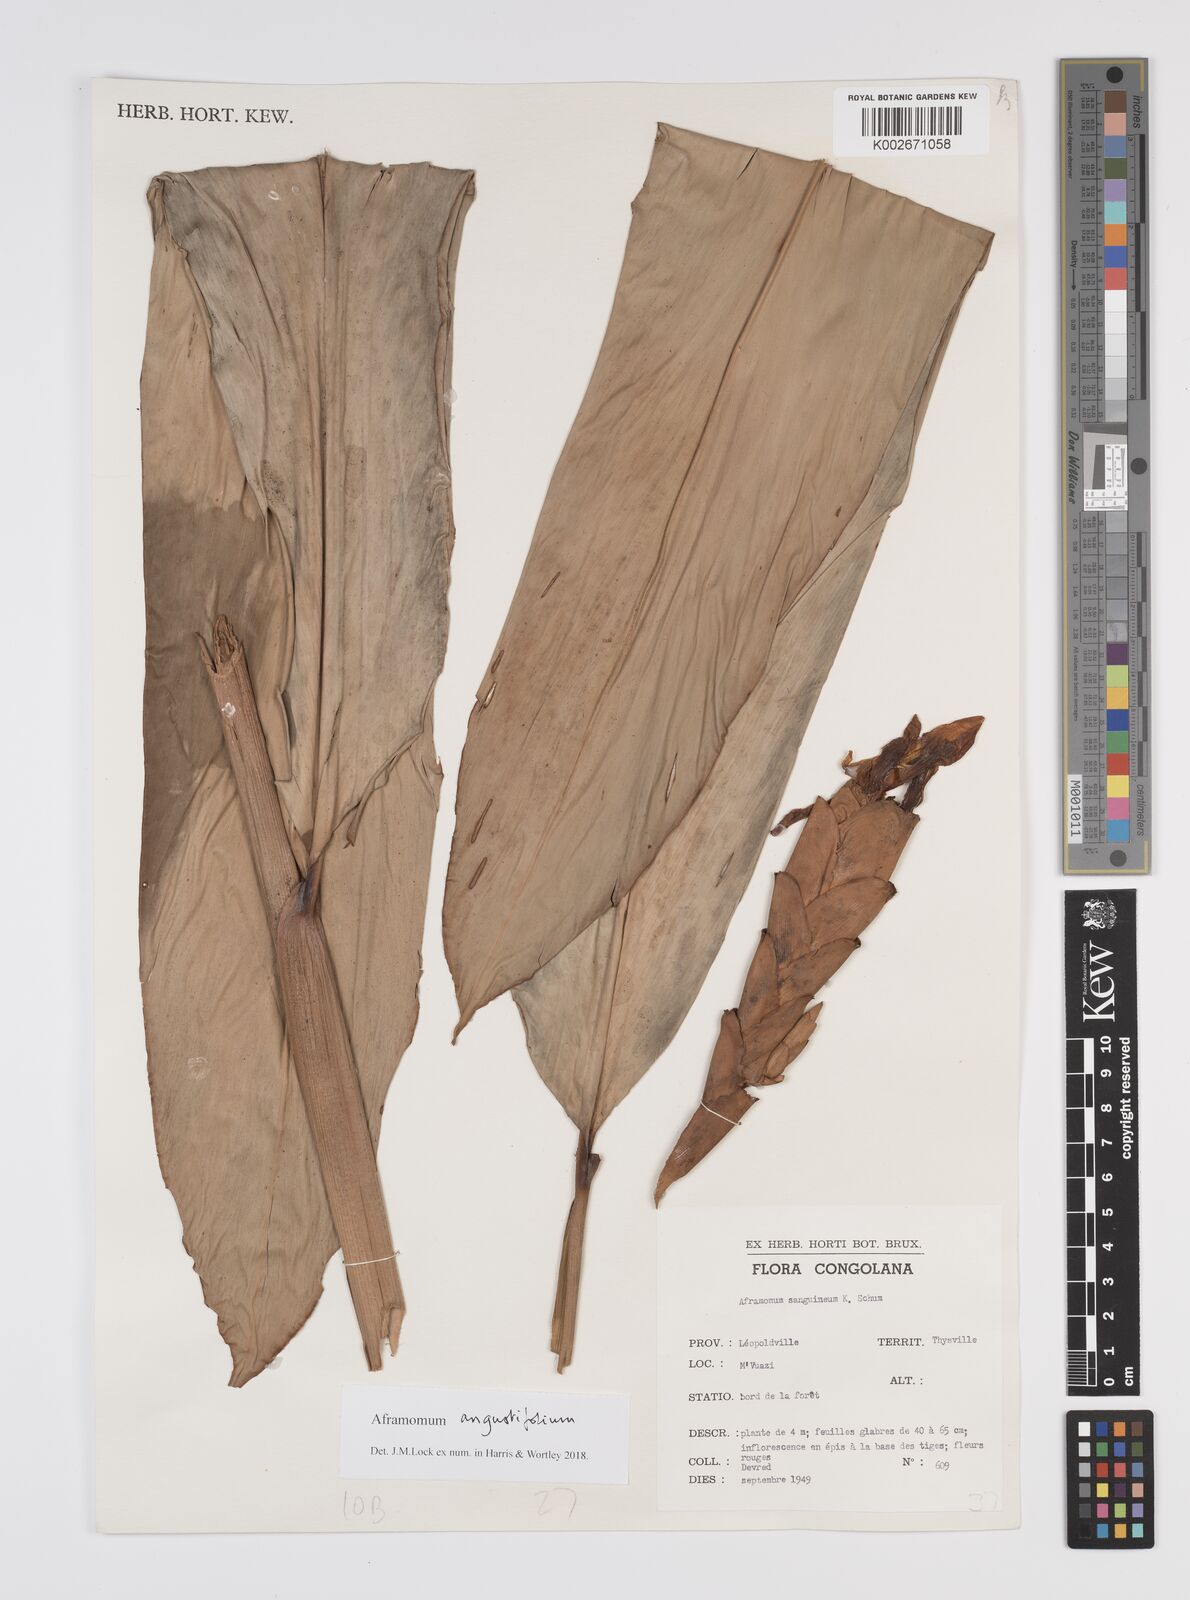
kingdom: Plantae
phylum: Tracheophyta
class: Liliopsida
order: Zingiberales
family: Zingiberaceae
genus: Aframomum
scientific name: Aframomum angustifolium
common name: Guinea grains
